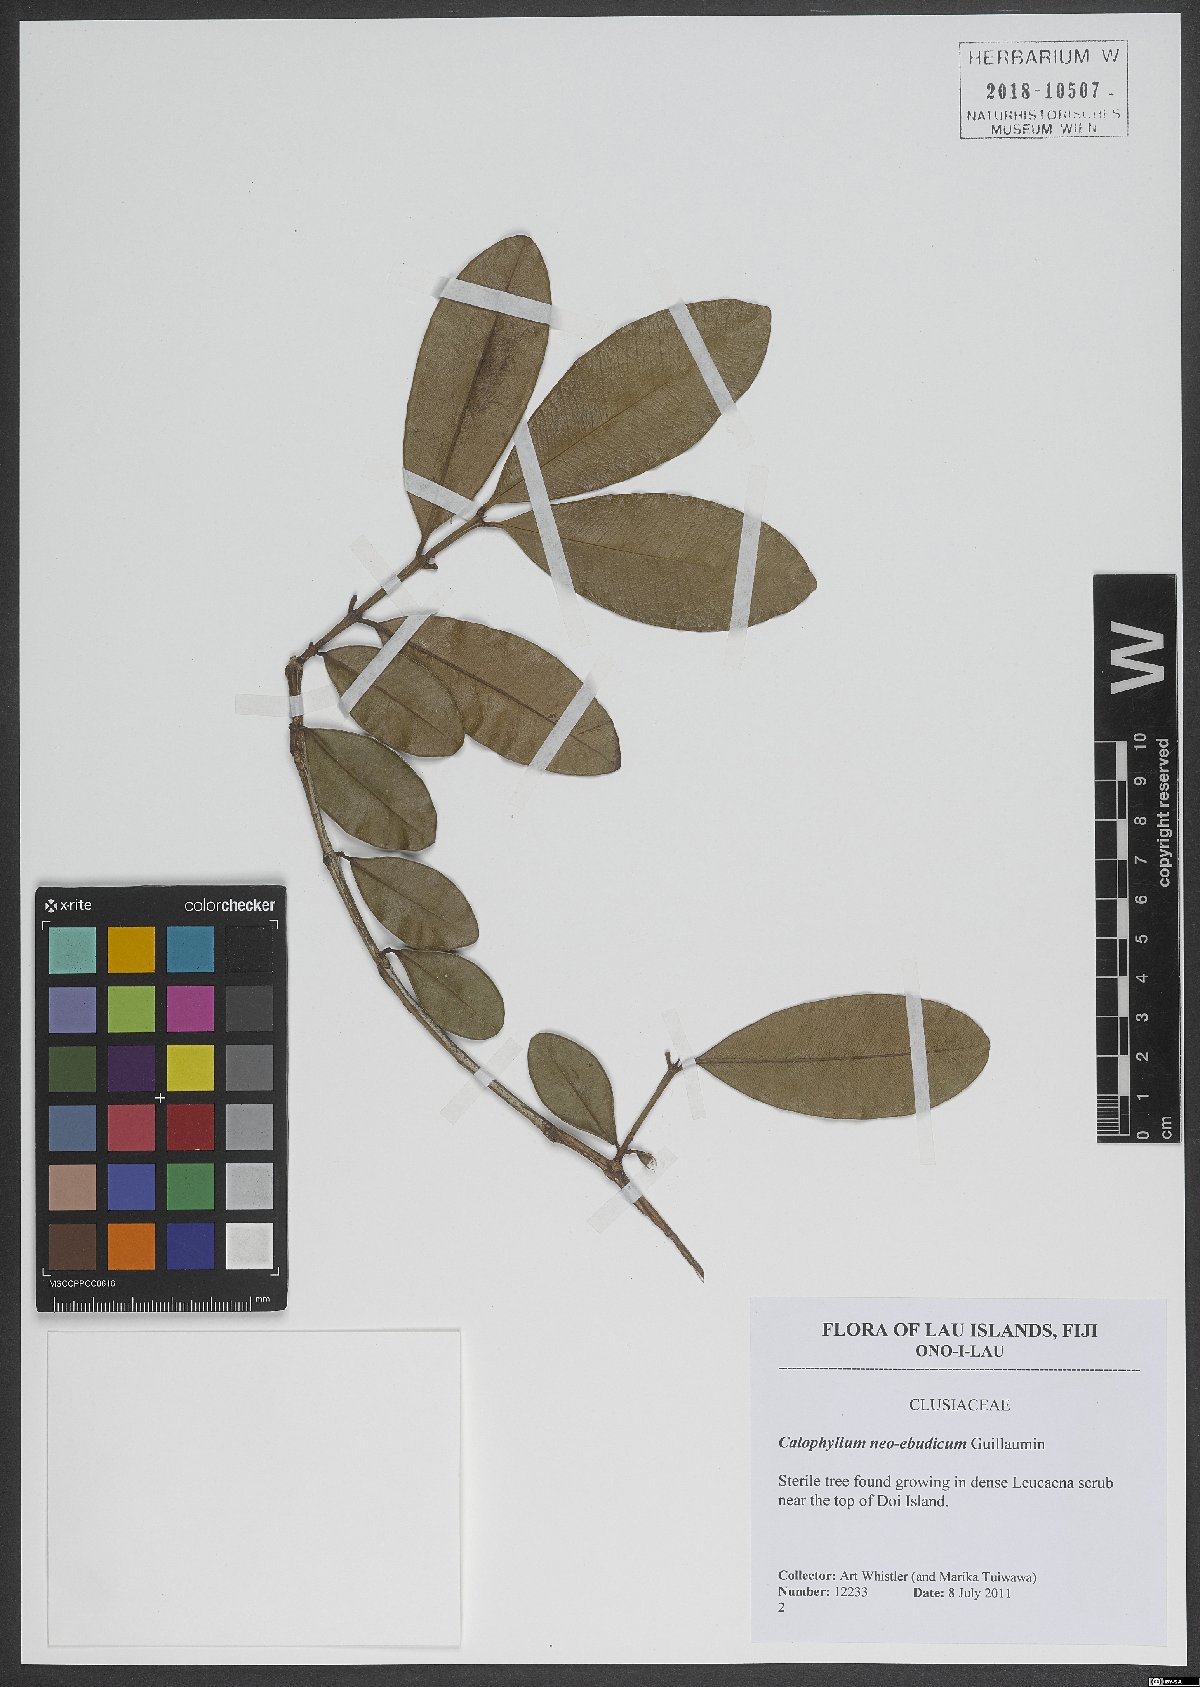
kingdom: Plantae
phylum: Tracheophyta
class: Magnoliopsida
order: Malpighiales
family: Calophyllaceae
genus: Calophyllum
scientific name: Calophyllum neoebudicum
